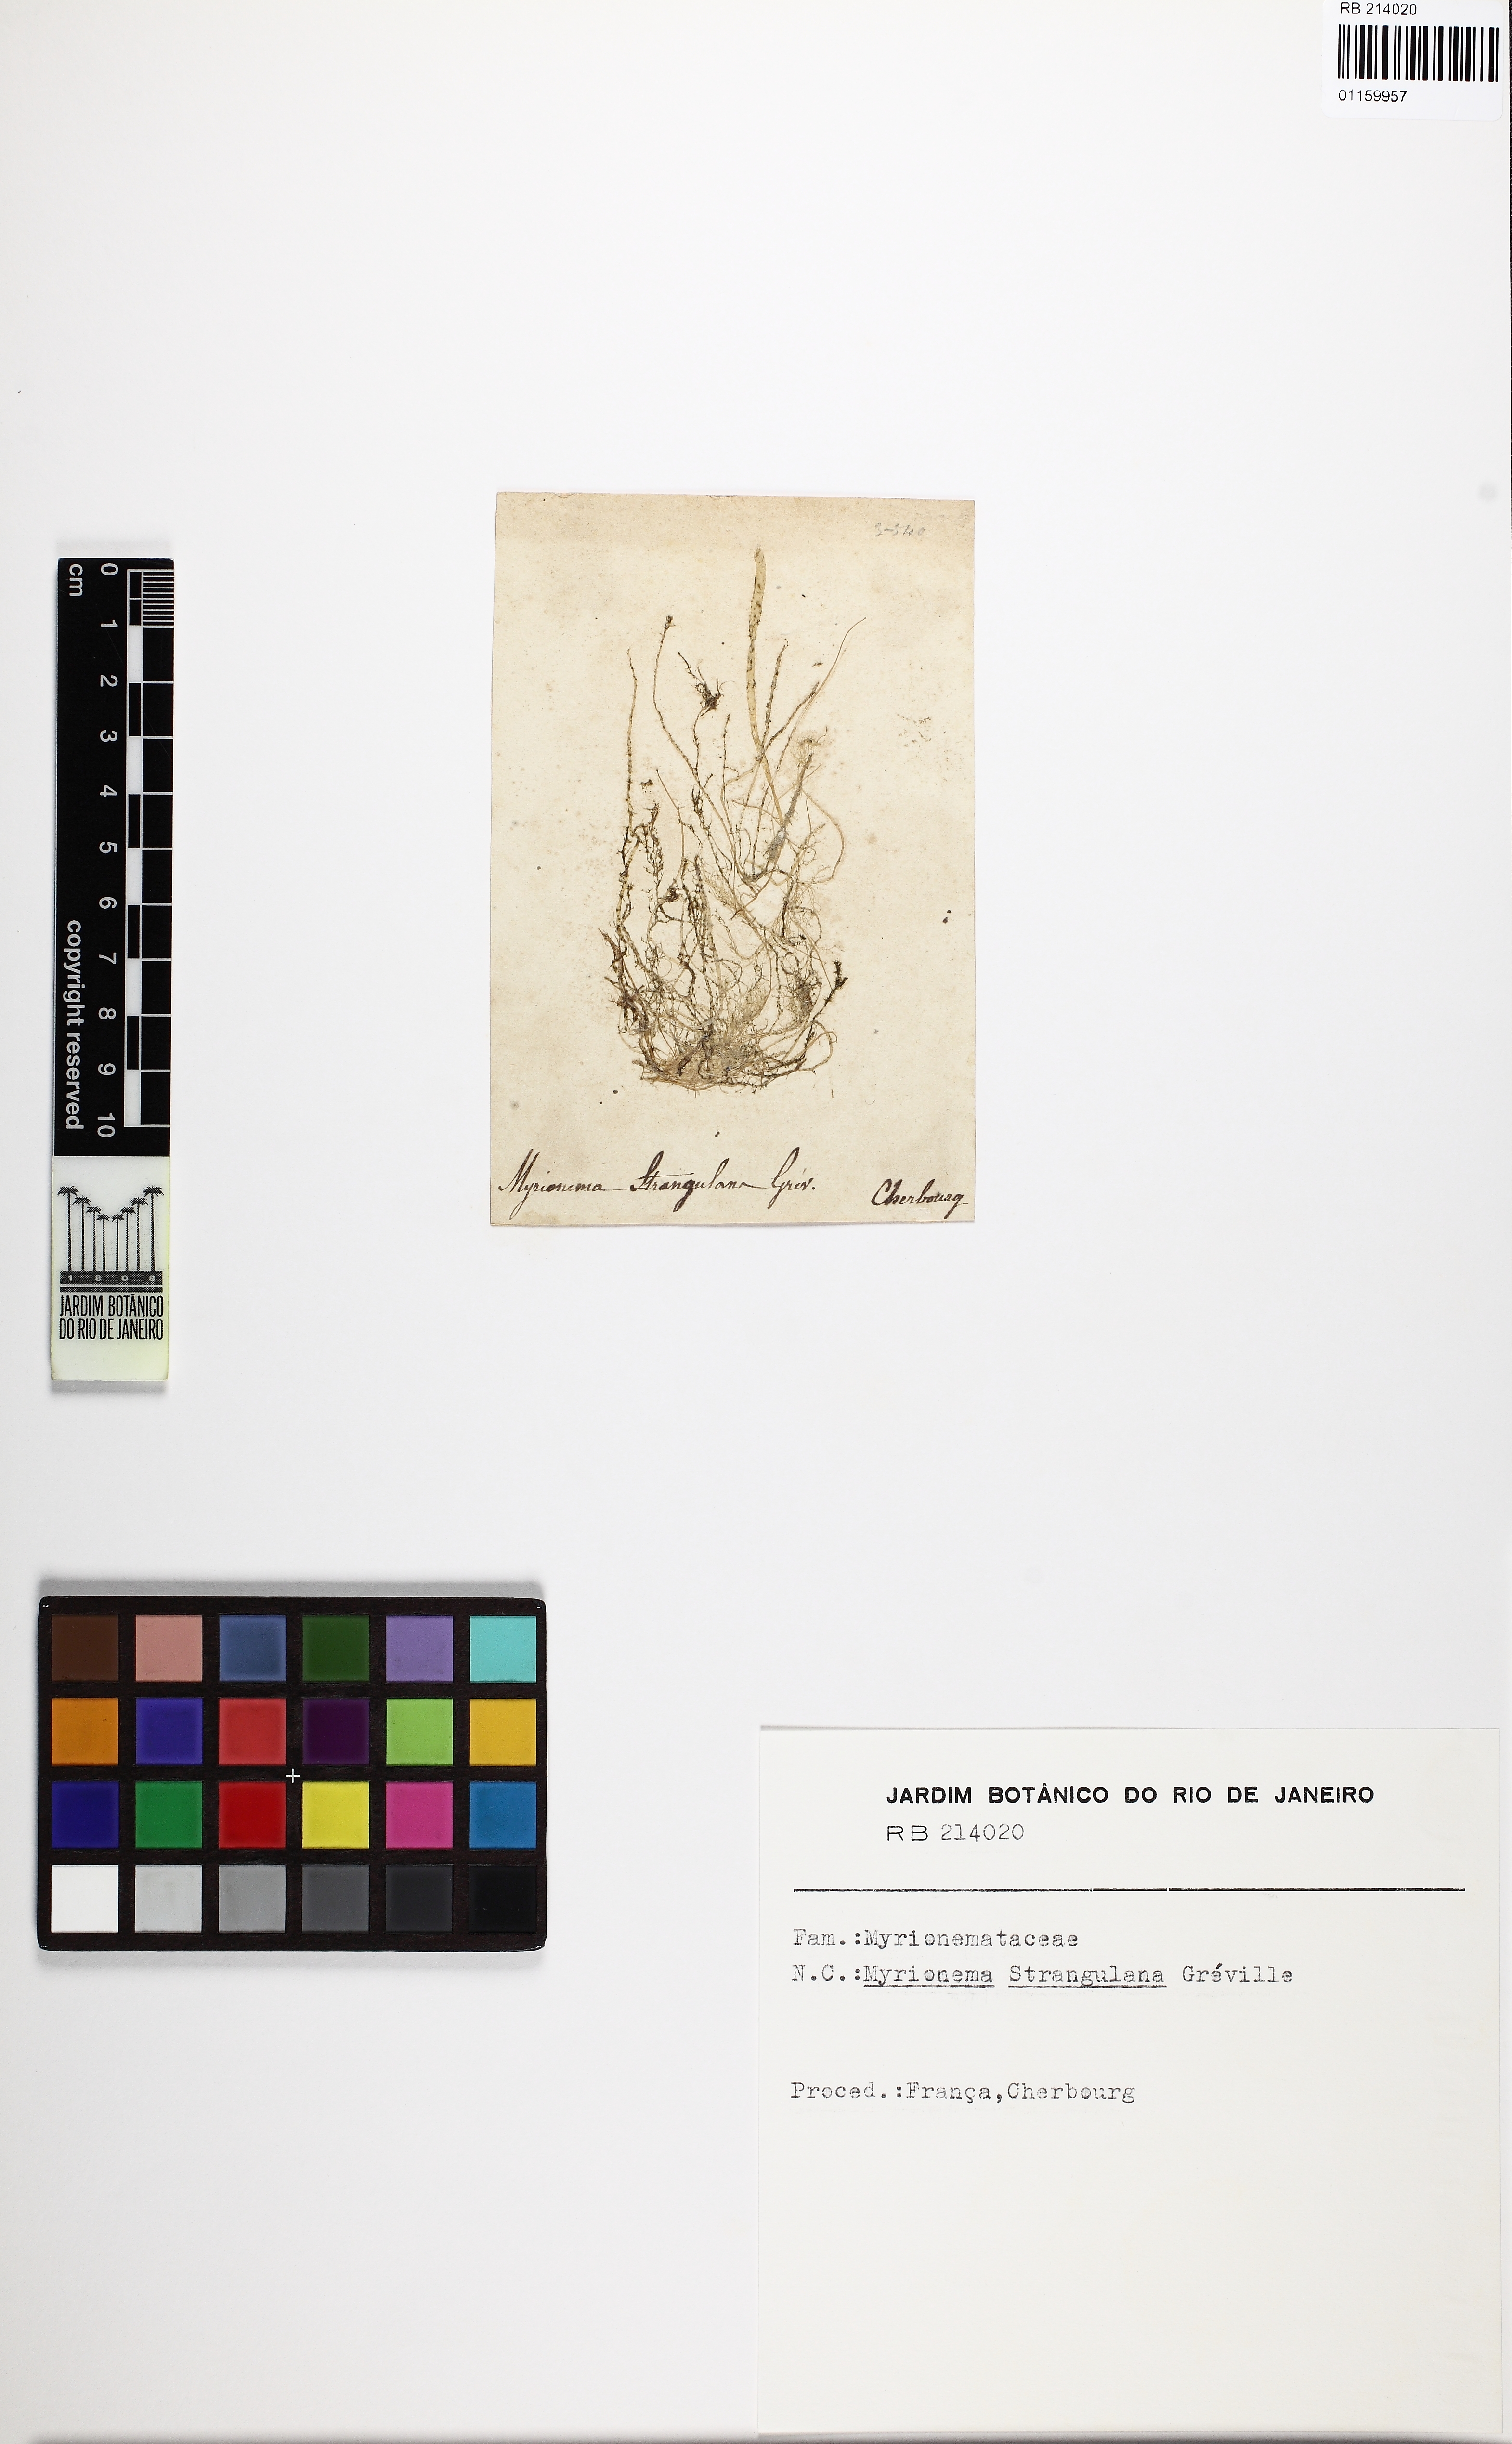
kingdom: Chromista
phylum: Ochrophyta
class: Phaeophyceae
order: Ectocarpales
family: Chordariaceae
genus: Myrionema
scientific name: Myrionema strangulans
